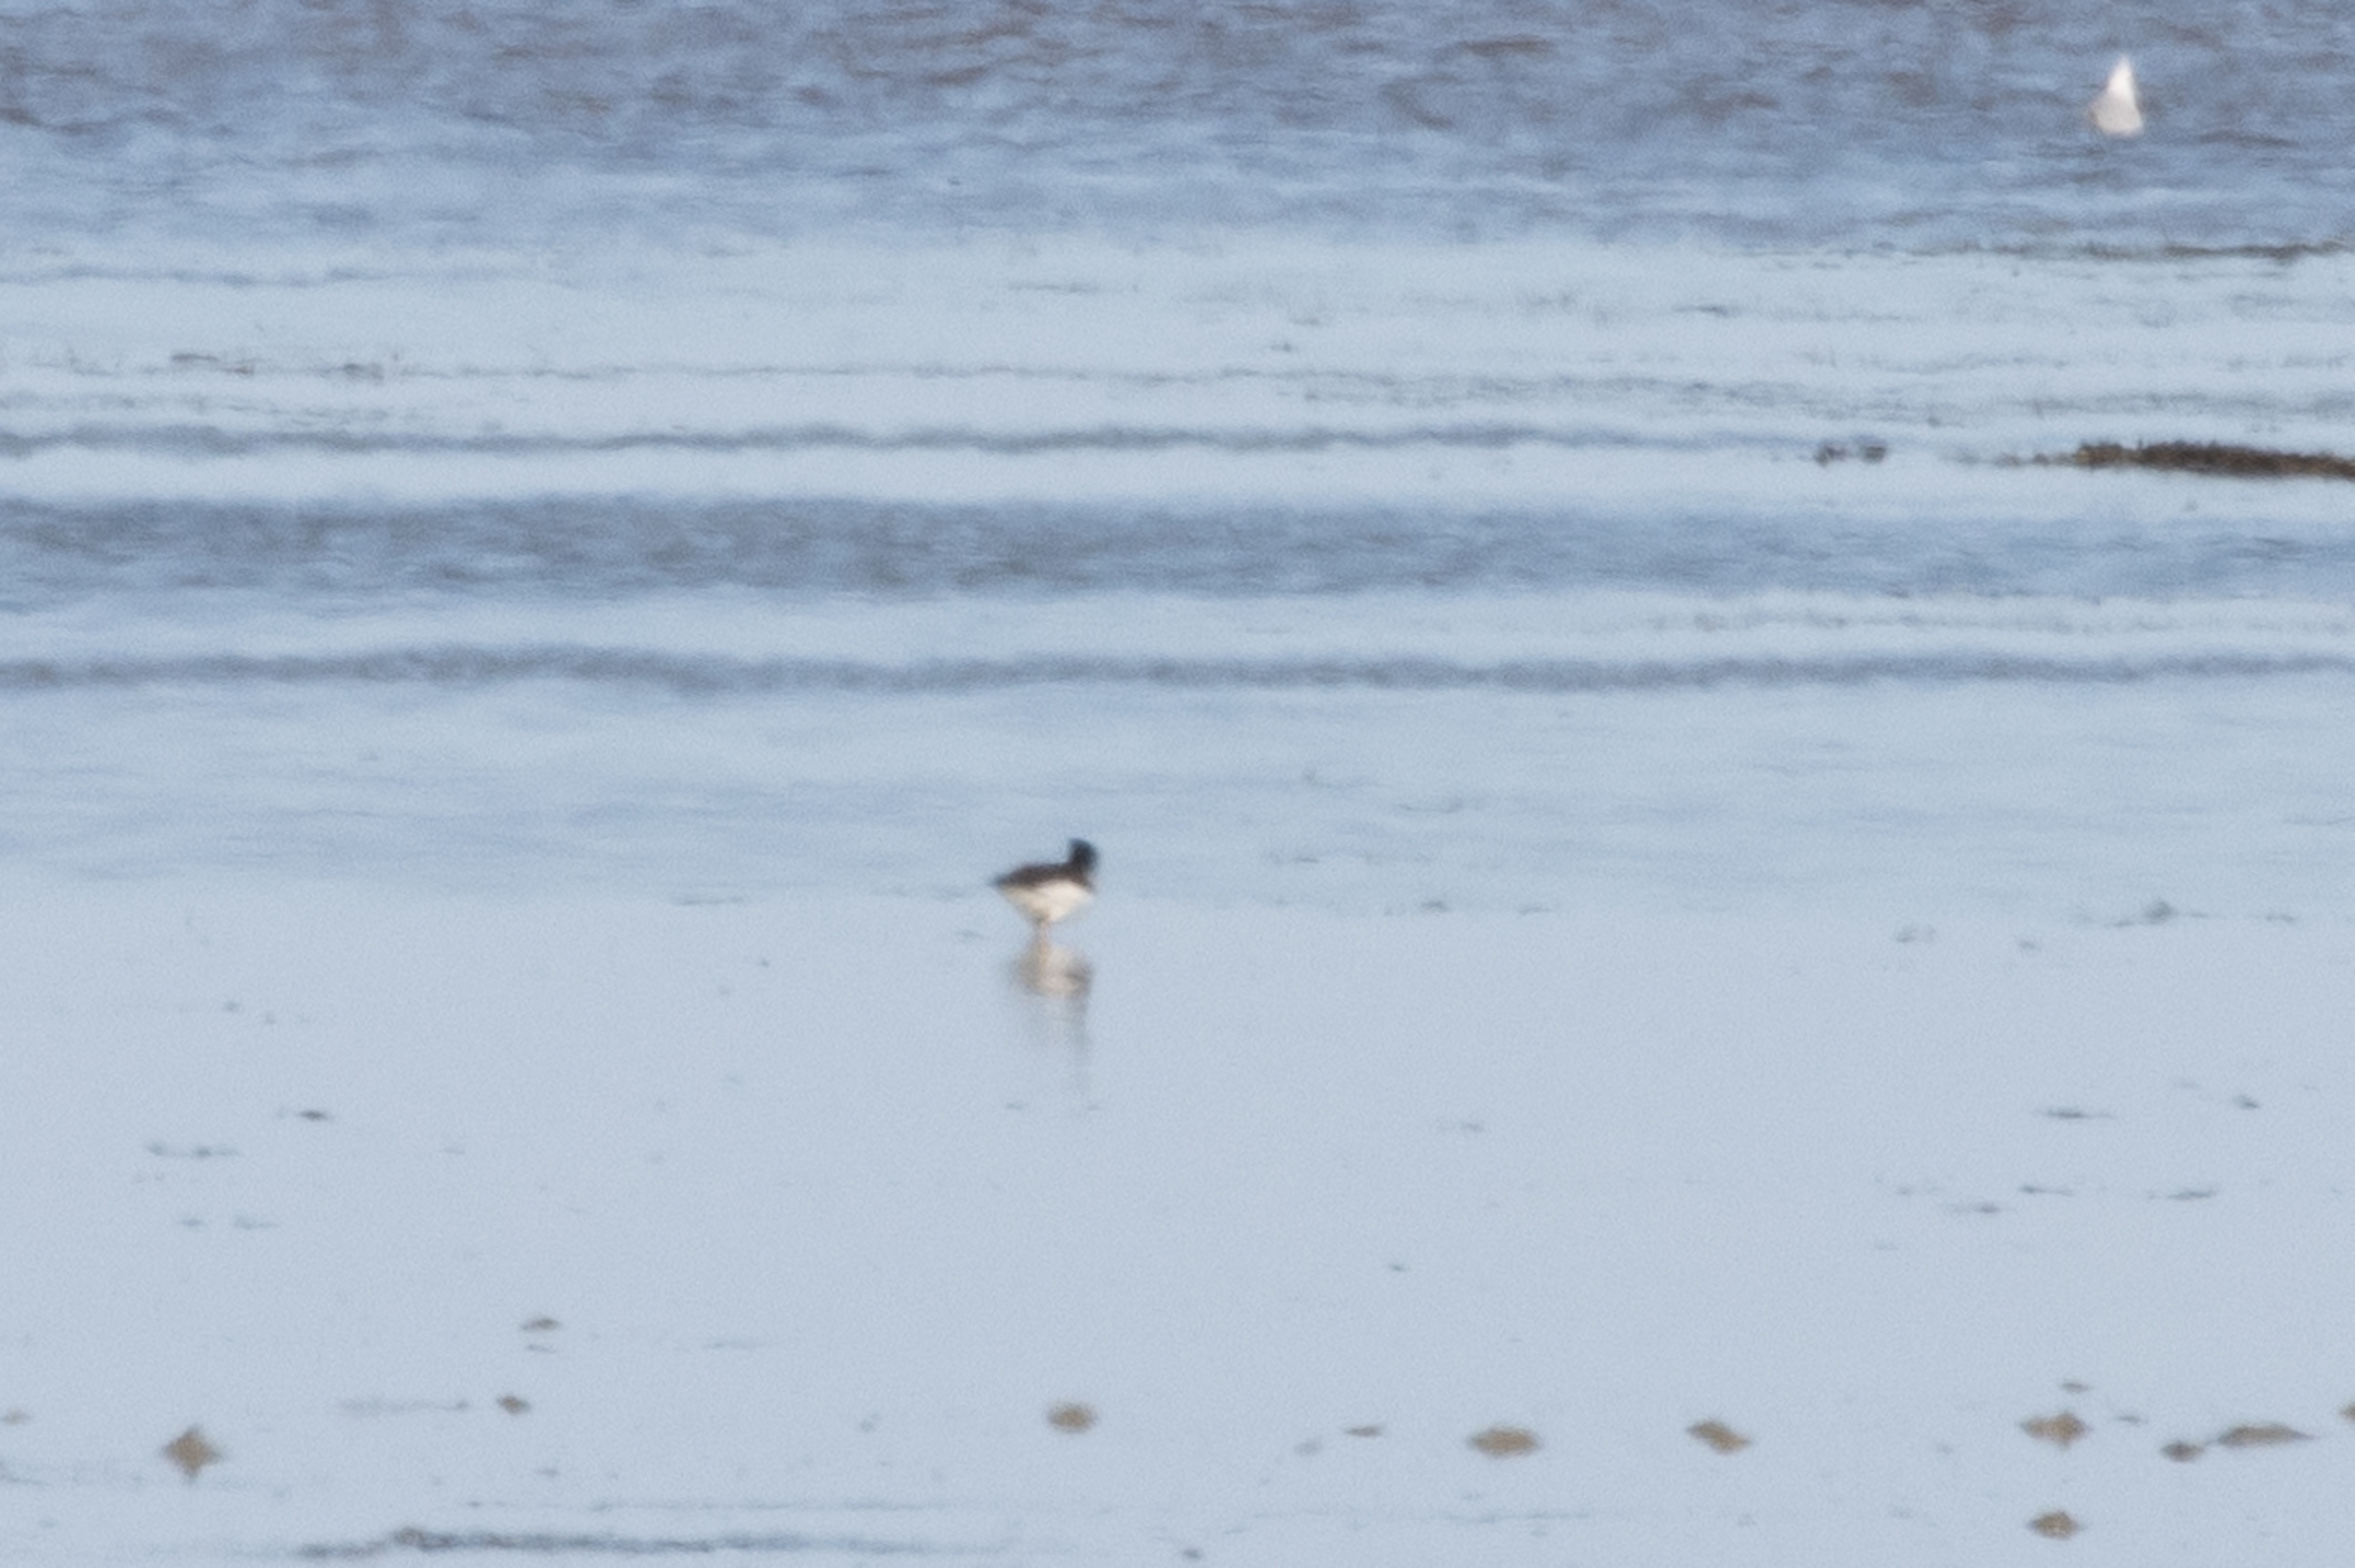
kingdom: Animalia
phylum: Chordata
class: Aves
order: Charadriiformes
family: Haematopodidae
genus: Haematopus
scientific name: Haematopus ostralegus
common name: Strandskade
